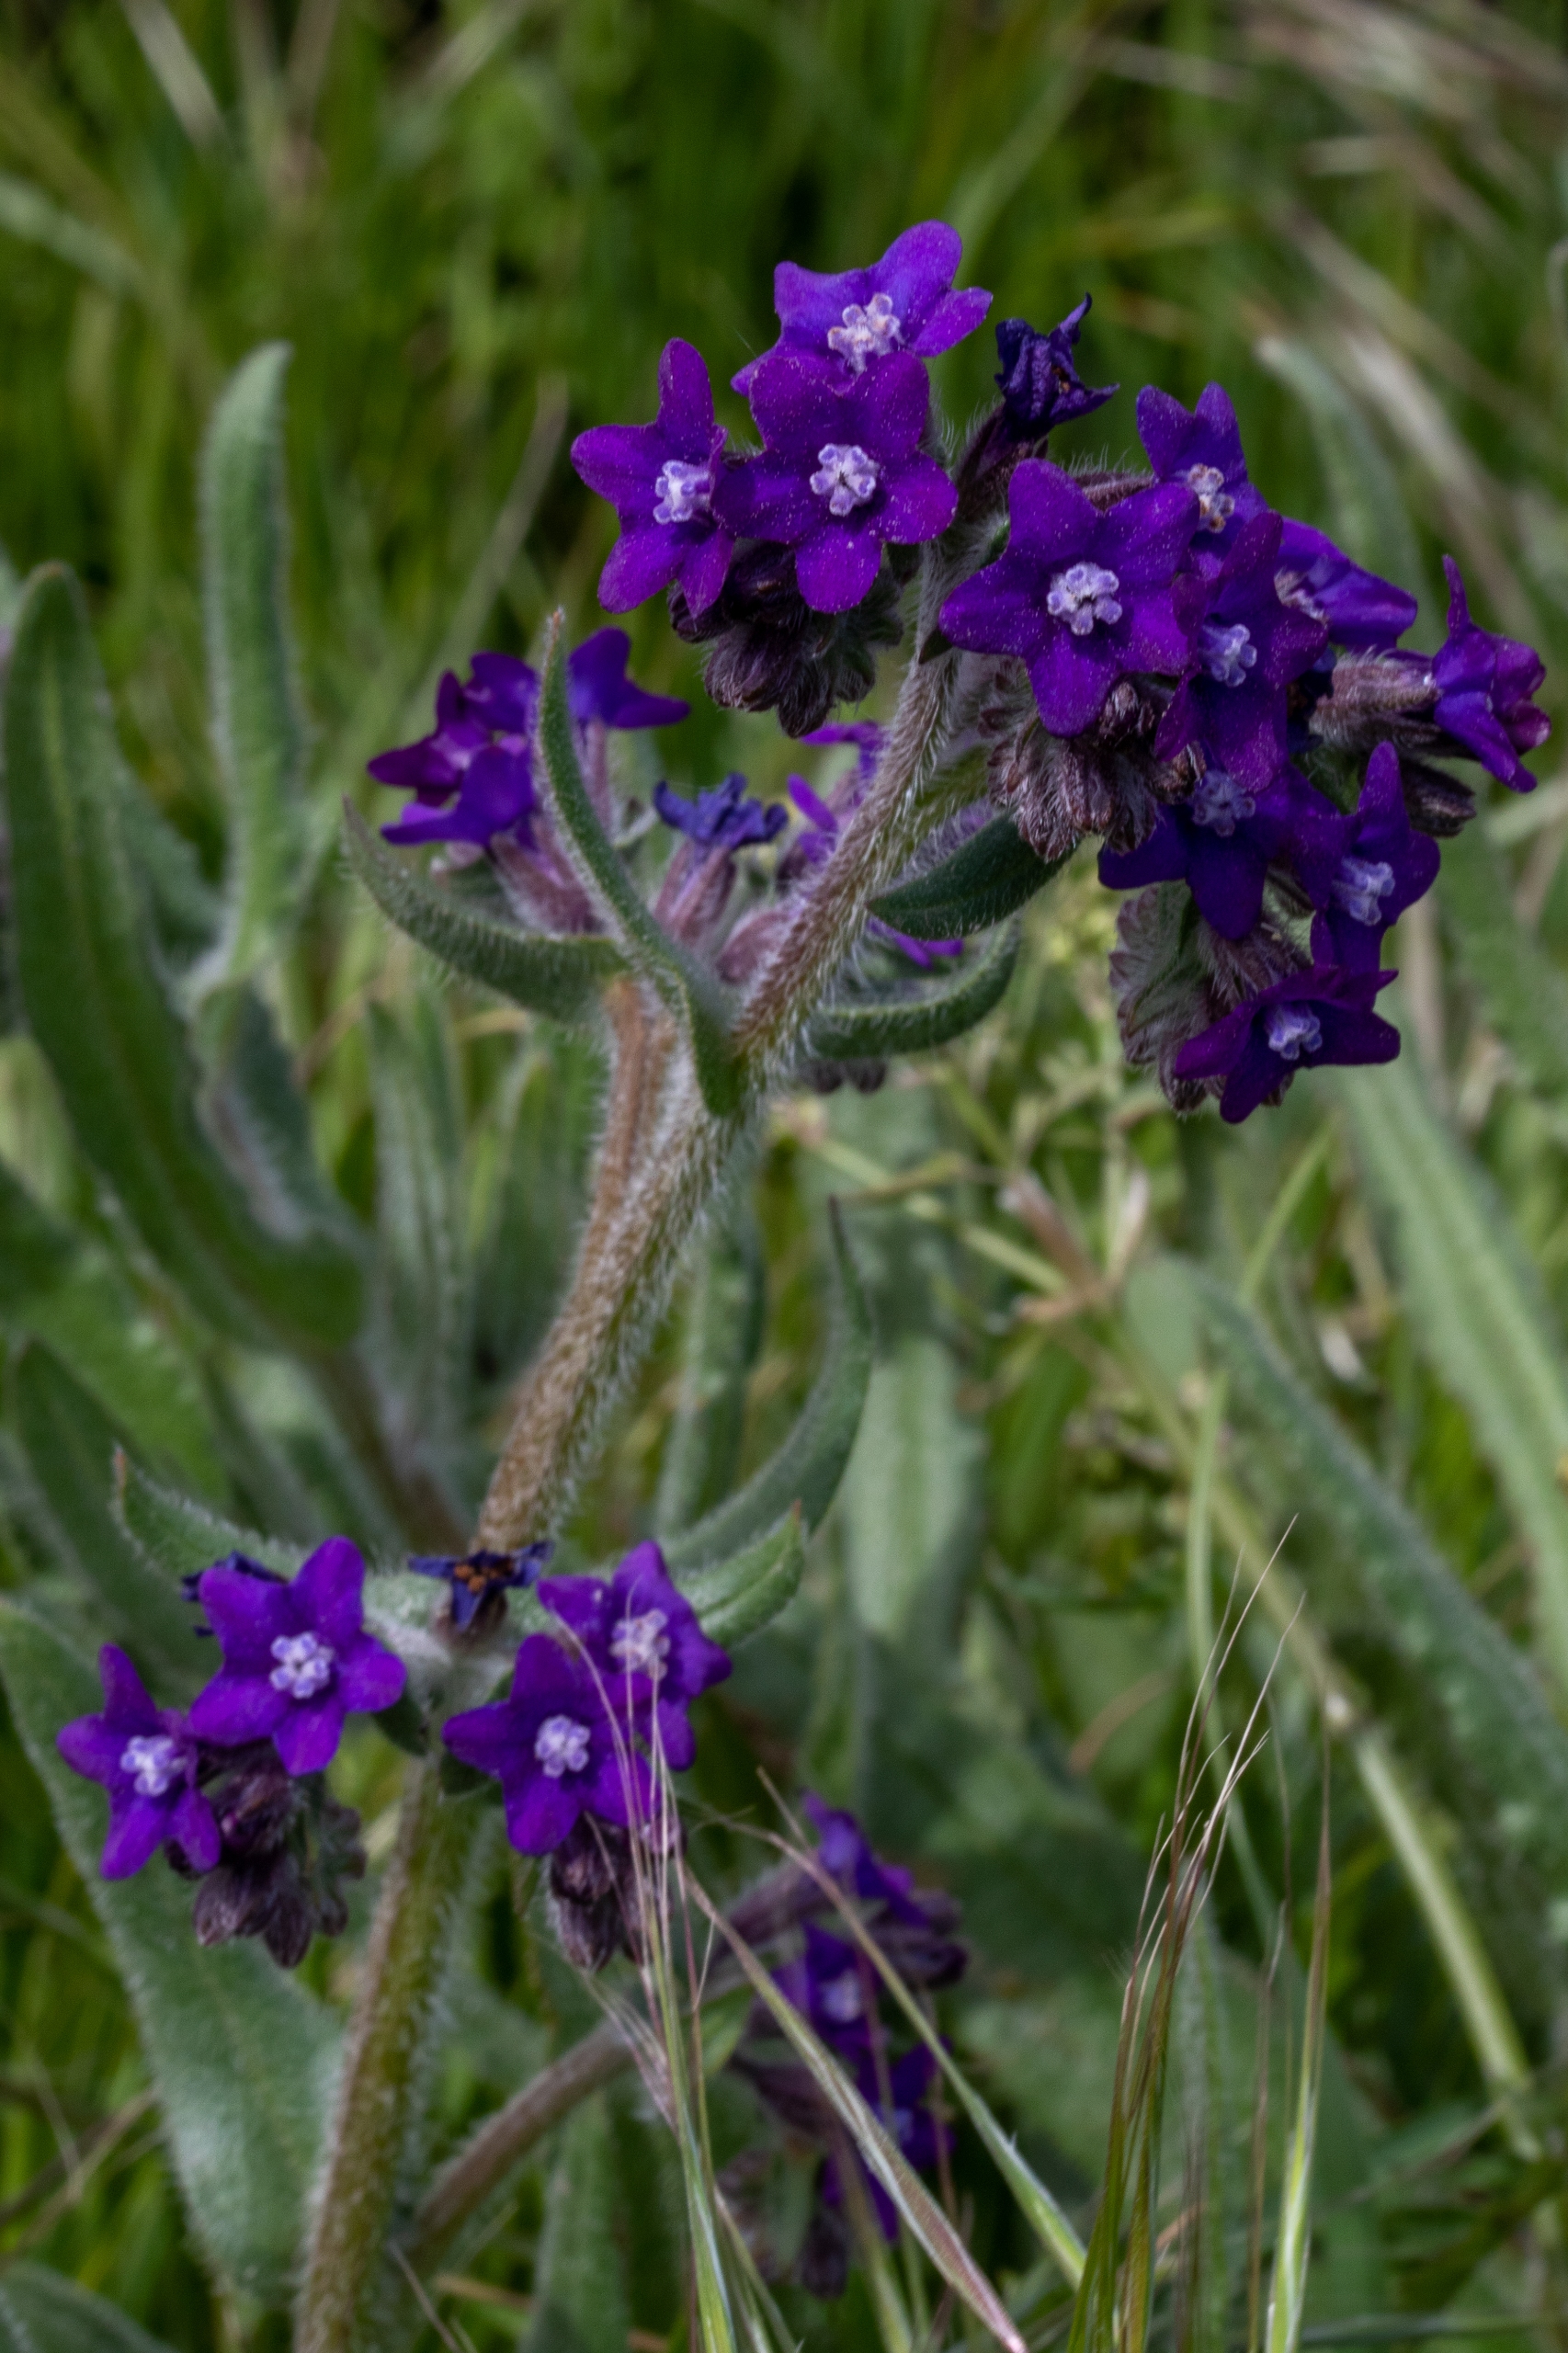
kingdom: Plantae
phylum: Tracheophyta
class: Magnoliopsida
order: Boraginales
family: Boraginaceae
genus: Anchusa
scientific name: Anchusa officinalis
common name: Læge-oksetunge
